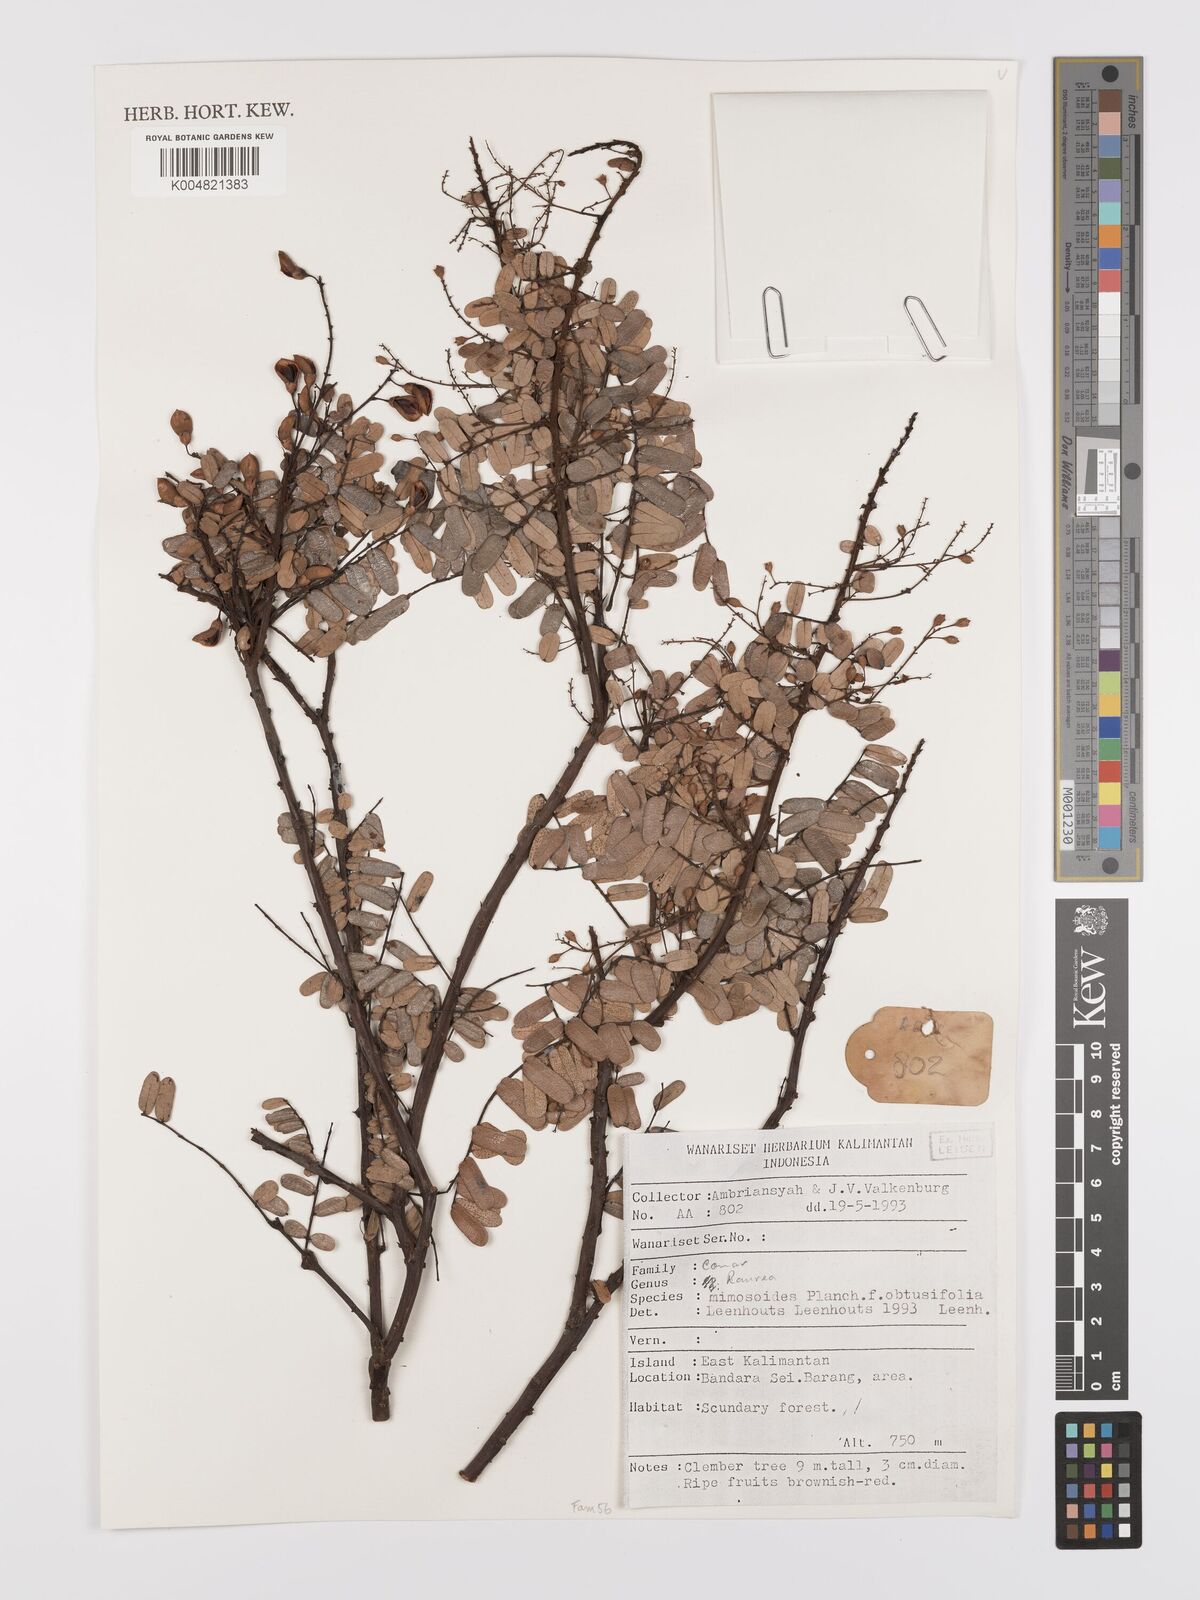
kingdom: Plantae
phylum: Tracheophyta
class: Magnoliopsida
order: Oxalidales
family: Connaraceae
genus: Rourea
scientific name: Rourea mimosoides
